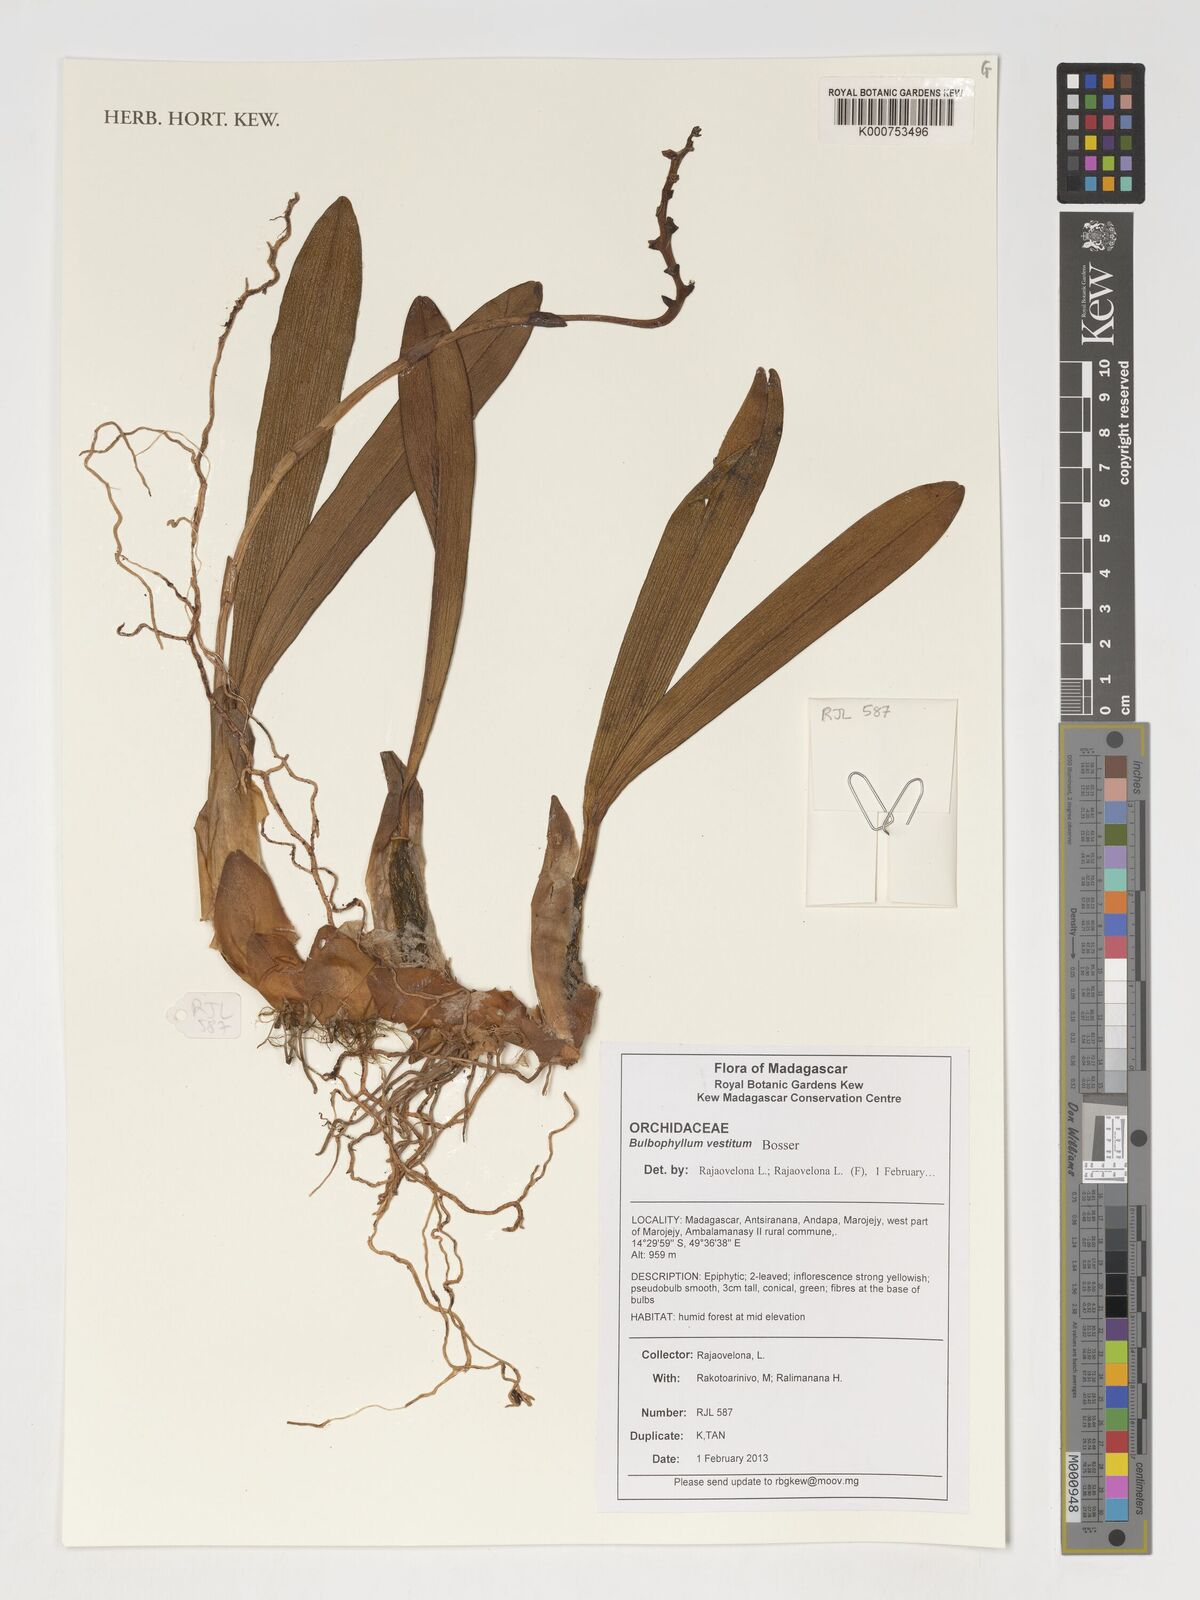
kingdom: Plantae
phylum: Tracheophyta
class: Liliopsida
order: Asparagales
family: Orchidaceae
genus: Bulbophyllum
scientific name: Bulbophyllum vestitum
